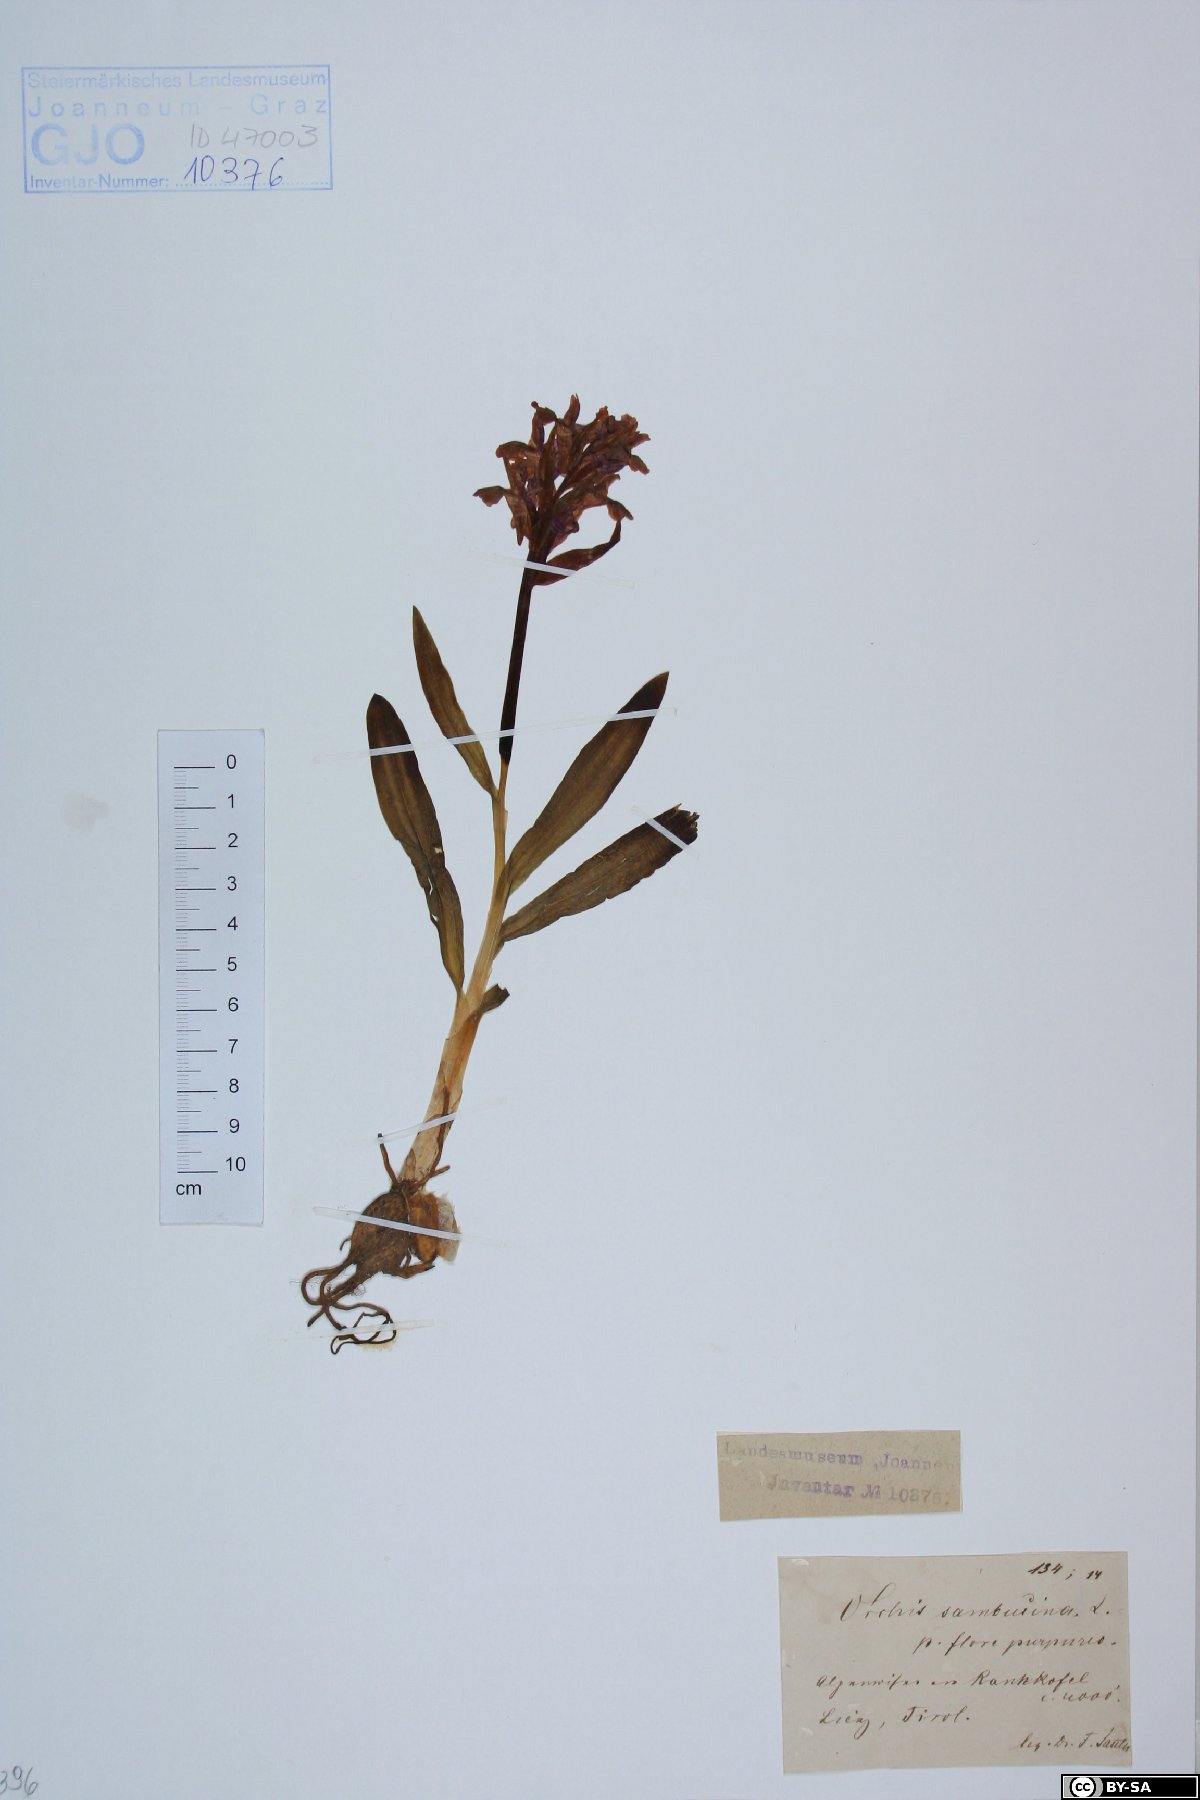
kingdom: Plantae
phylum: Tracheophyta
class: Liliopsida
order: Asparagales
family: Orchidaceae
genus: Dactylorhiza
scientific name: Dactylorhiza sambucina
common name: Elder-flowered orchid
